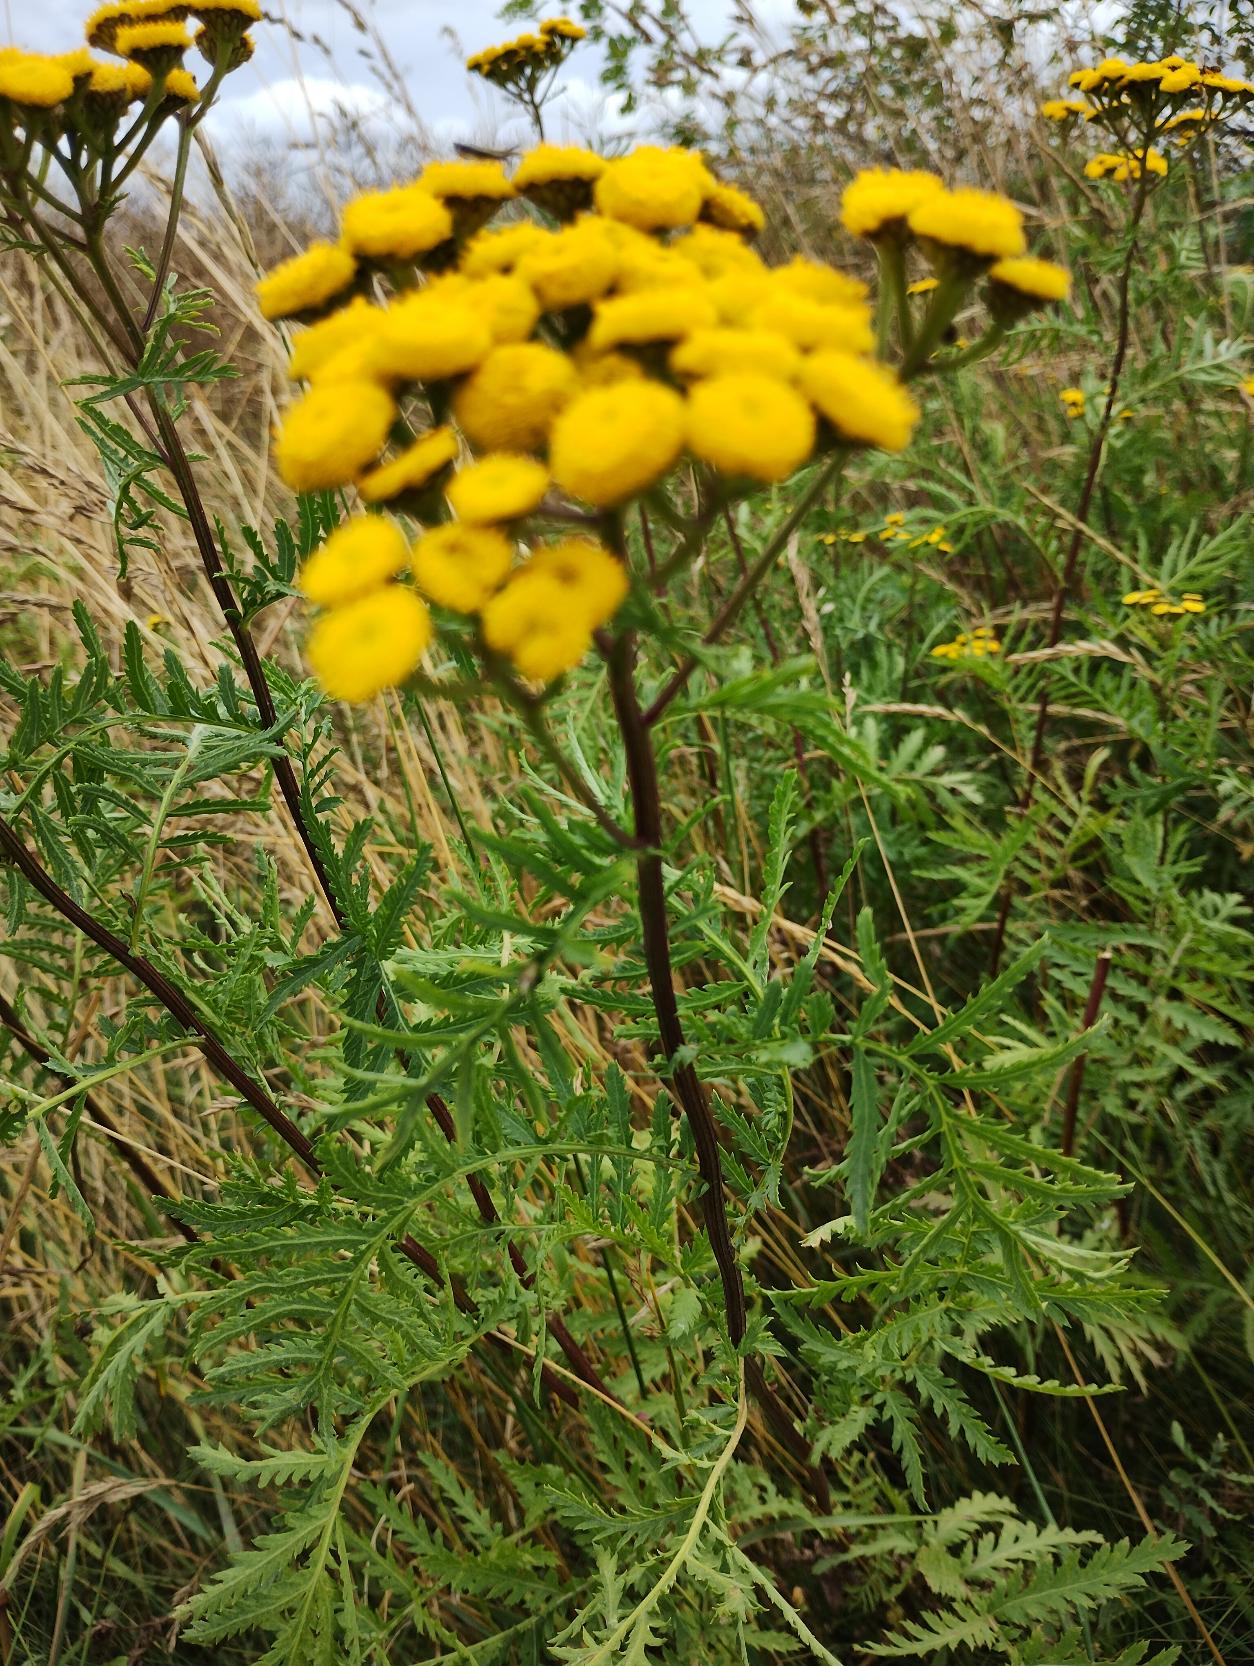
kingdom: Plantae
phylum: Tracheophyta
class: Magnoliopsida
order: Asterales
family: Asteraceae
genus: Tanacetum
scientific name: Tanacetum vulgare
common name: Rejnfan
